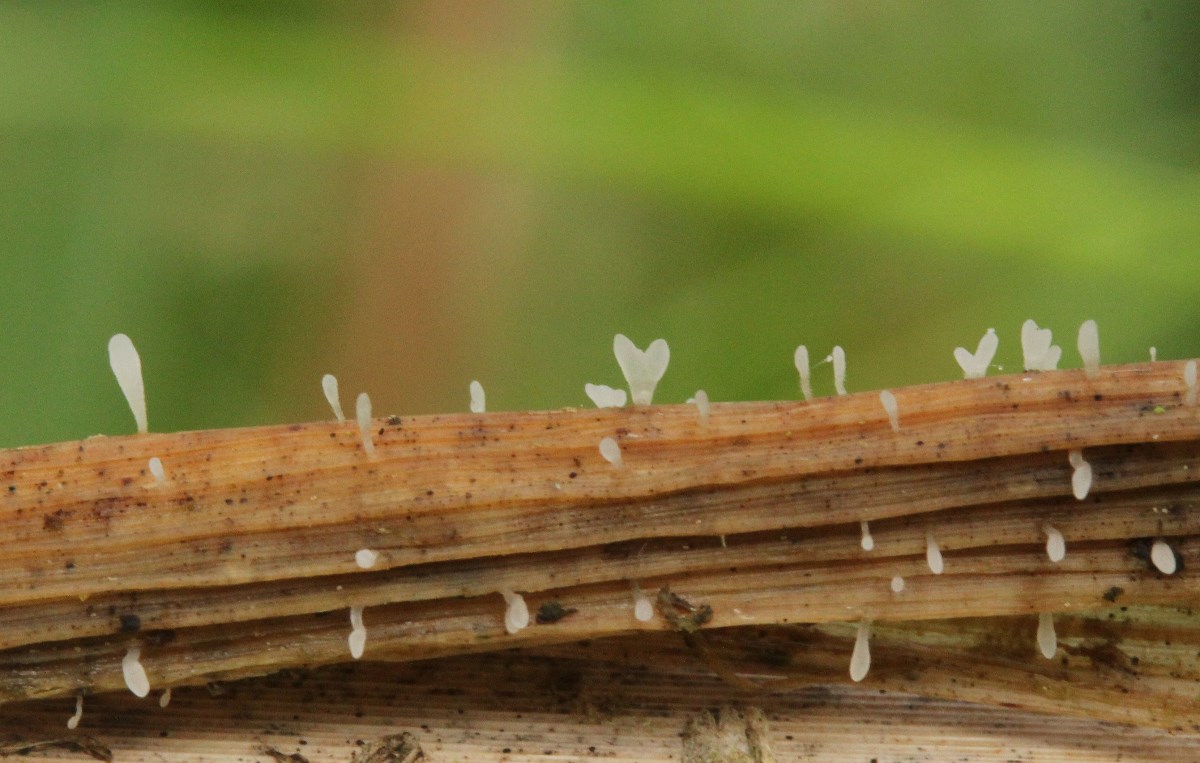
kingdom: Fungi
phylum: Basidiomycota
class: Agaricomycetes
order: Agaricales
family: Typhulaceae
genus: Typhula
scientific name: Typhula culmigena
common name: hjertesporet trådkølle
